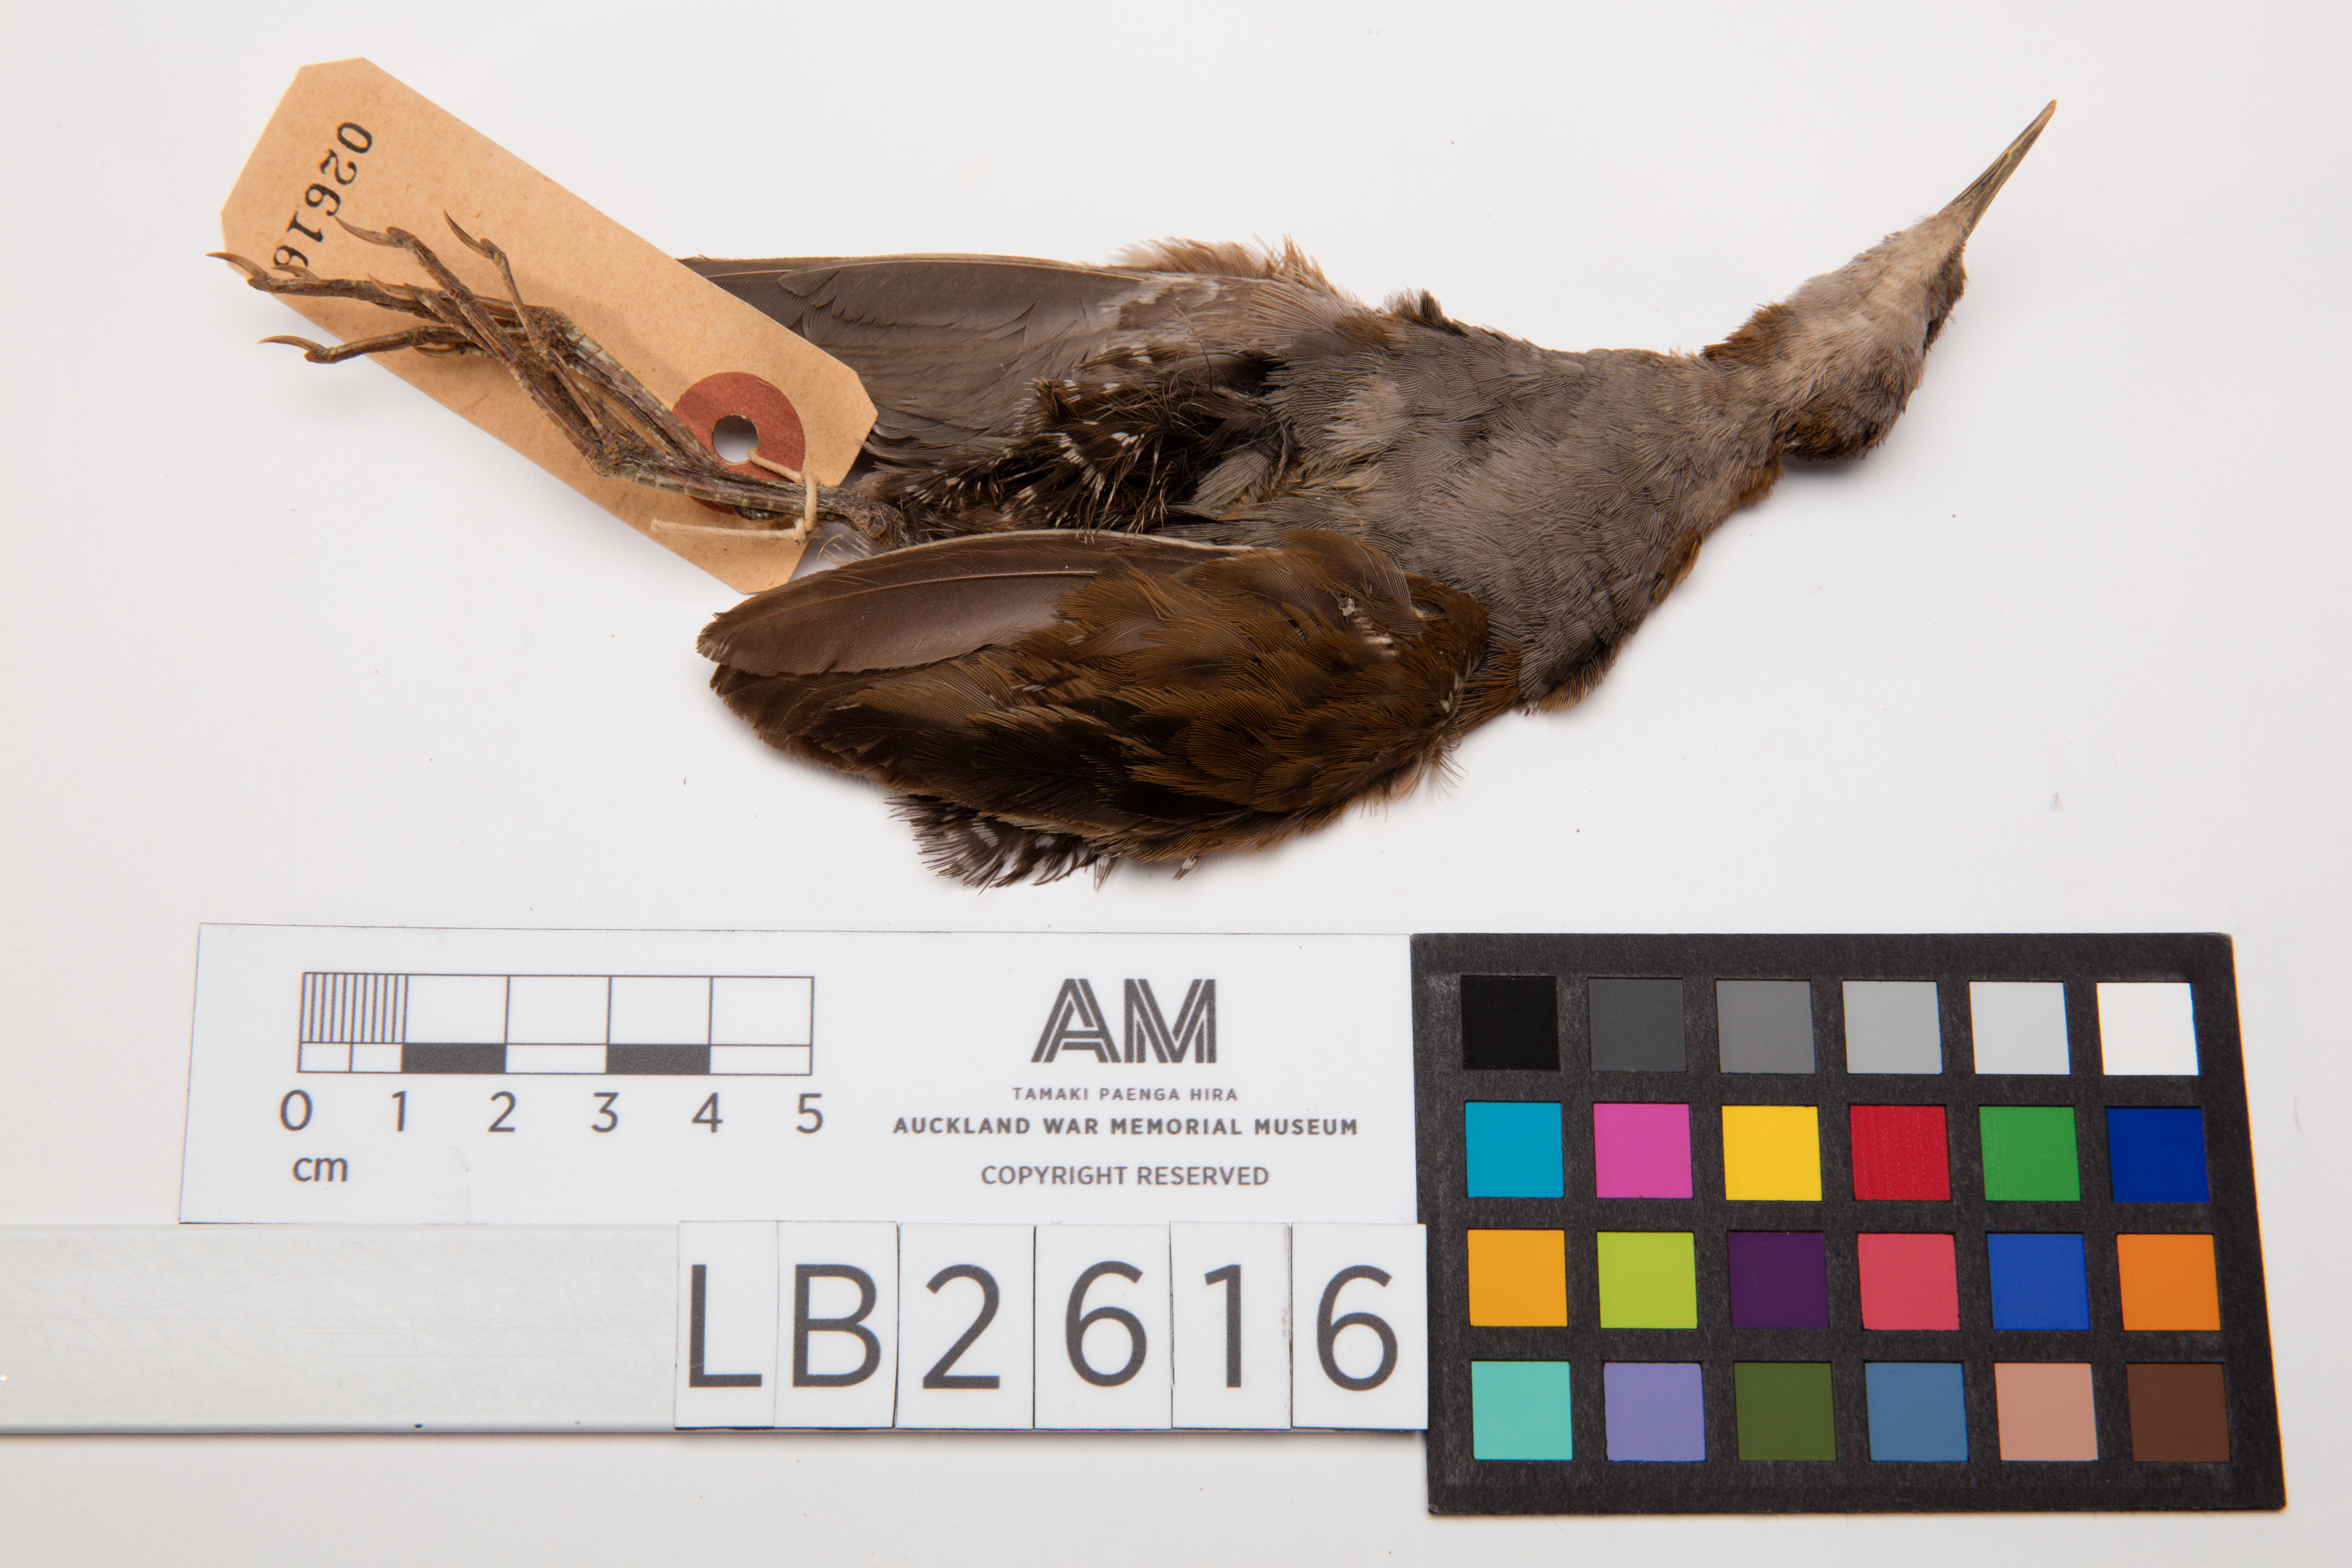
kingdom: Animalia
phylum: Chordata
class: Aves
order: Gruiformes
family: Rallidae
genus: Porzana
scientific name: Porzana pusilla
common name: Baillon's crake
